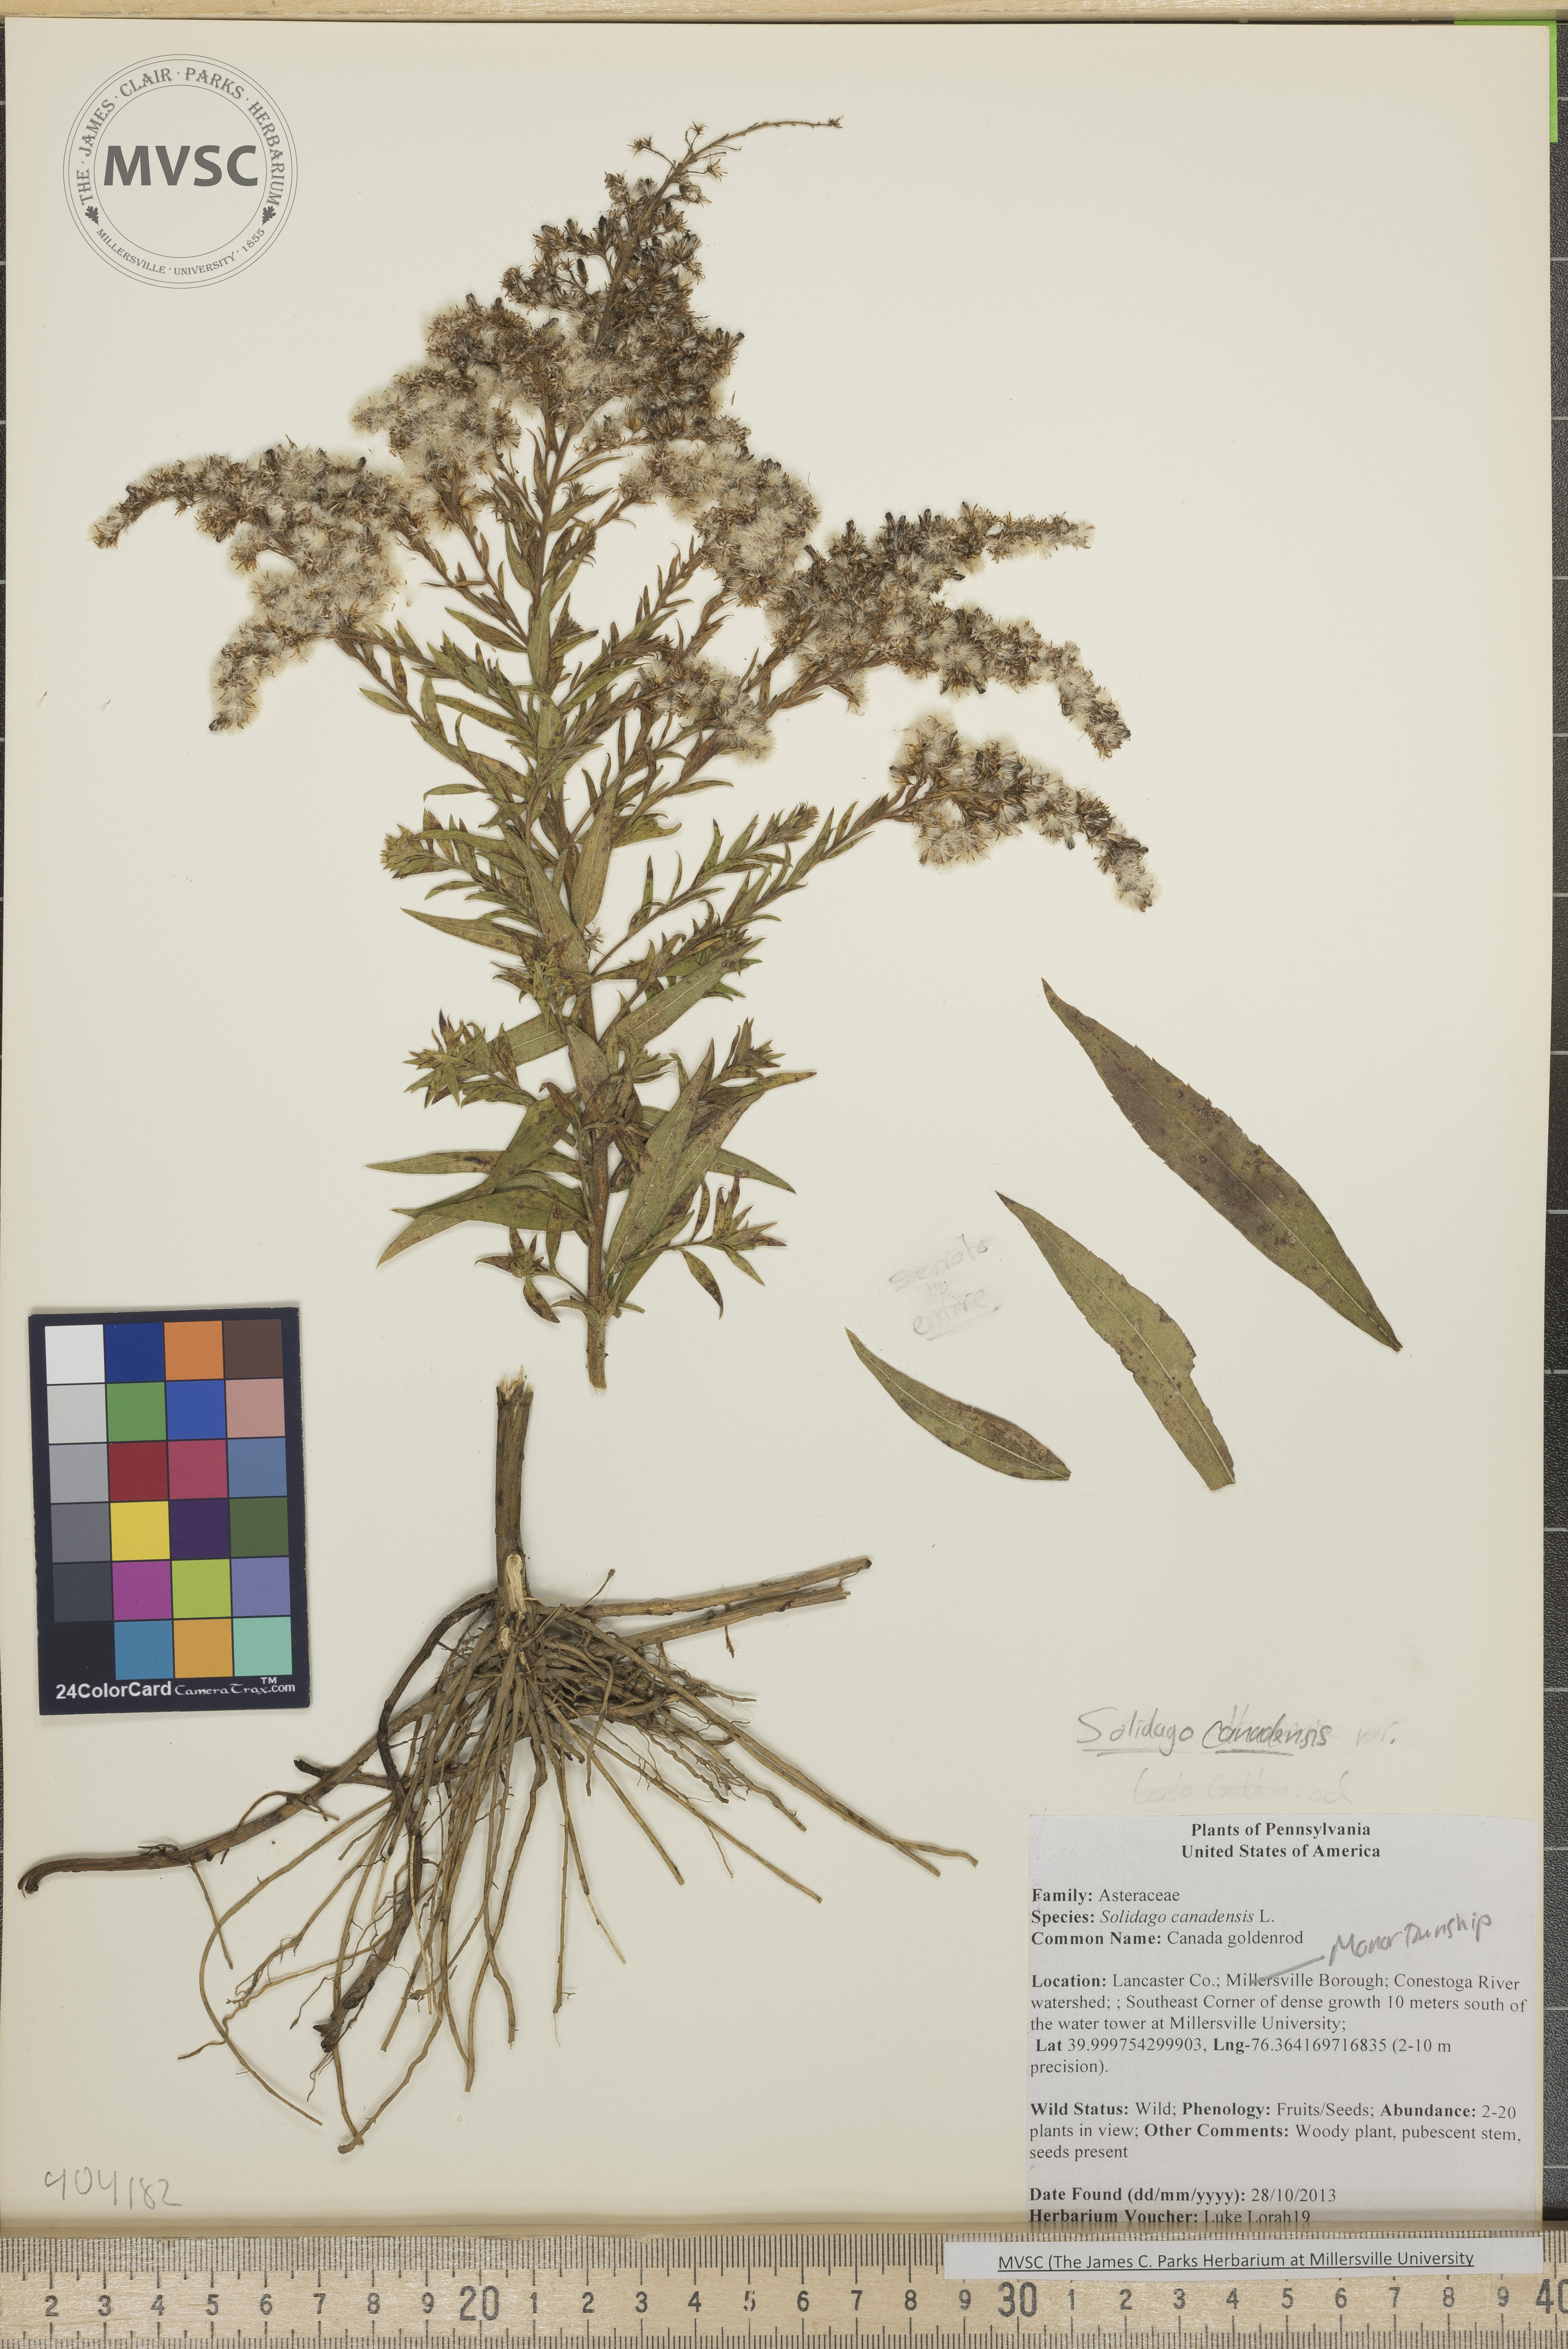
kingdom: Plantae
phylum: Tracheophyta
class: Magnoliopsida
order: Asterales
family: Asteraceae
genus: Solidago
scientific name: Solidago altissima
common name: Late goldenrod
